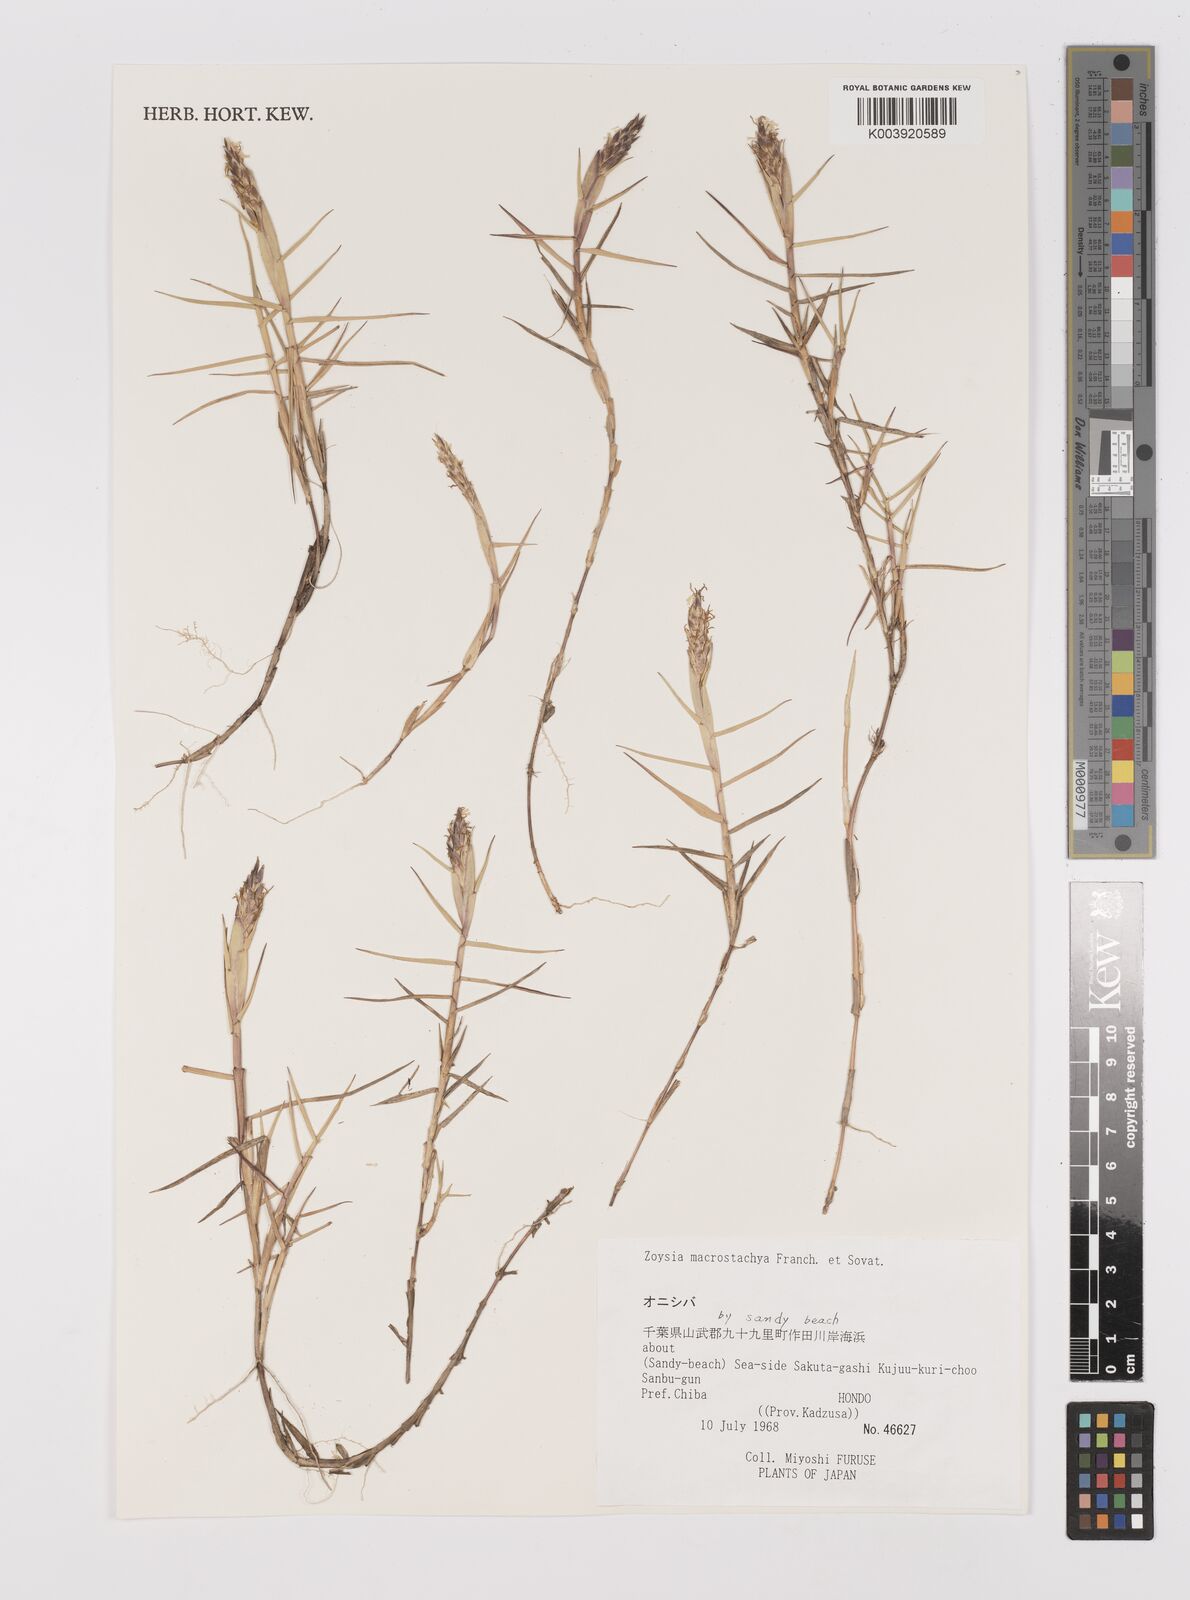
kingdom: Plantae
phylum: Tracheophyta
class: Liliopsida
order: Poales
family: Poaceae
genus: Zoysia
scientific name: Zoysia macrostachya
